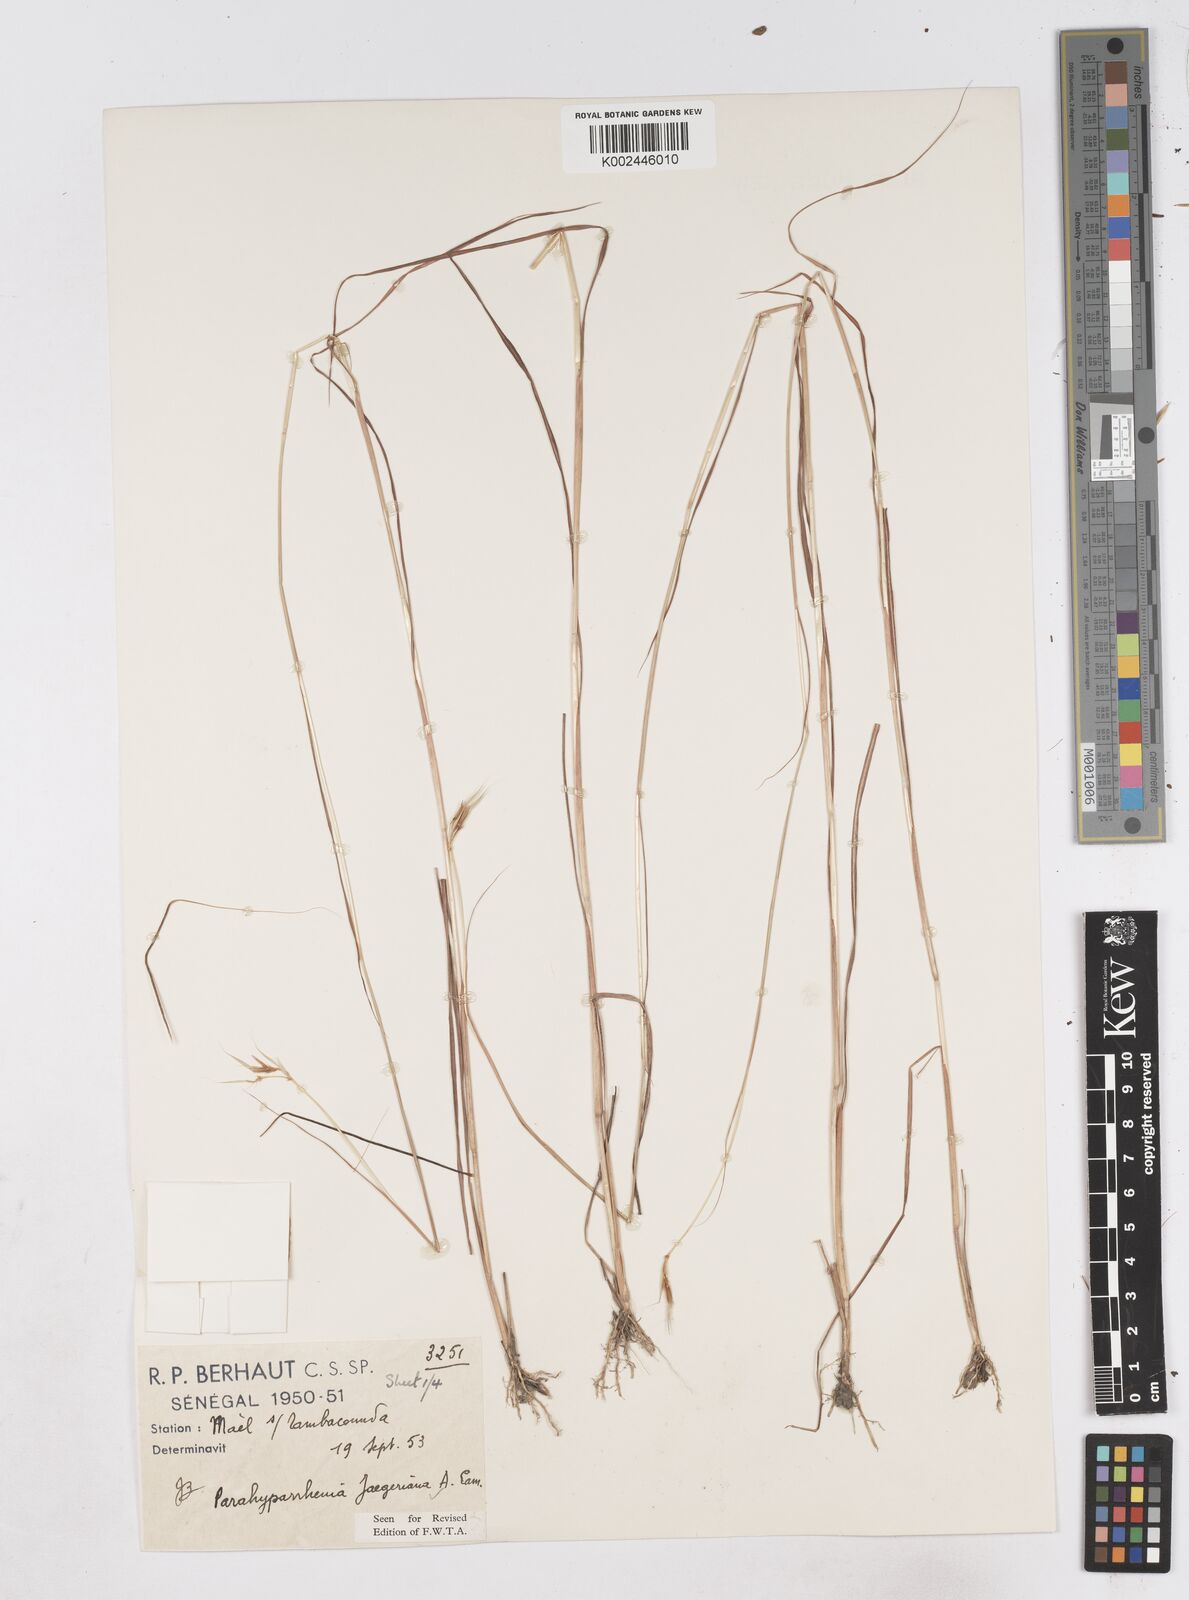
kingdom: Plantae
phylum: Tracheophyta
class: Liliopsida
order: Poales
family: Poaceae
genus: Parahyparrhenia
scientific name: Parahyparrhenia annua
